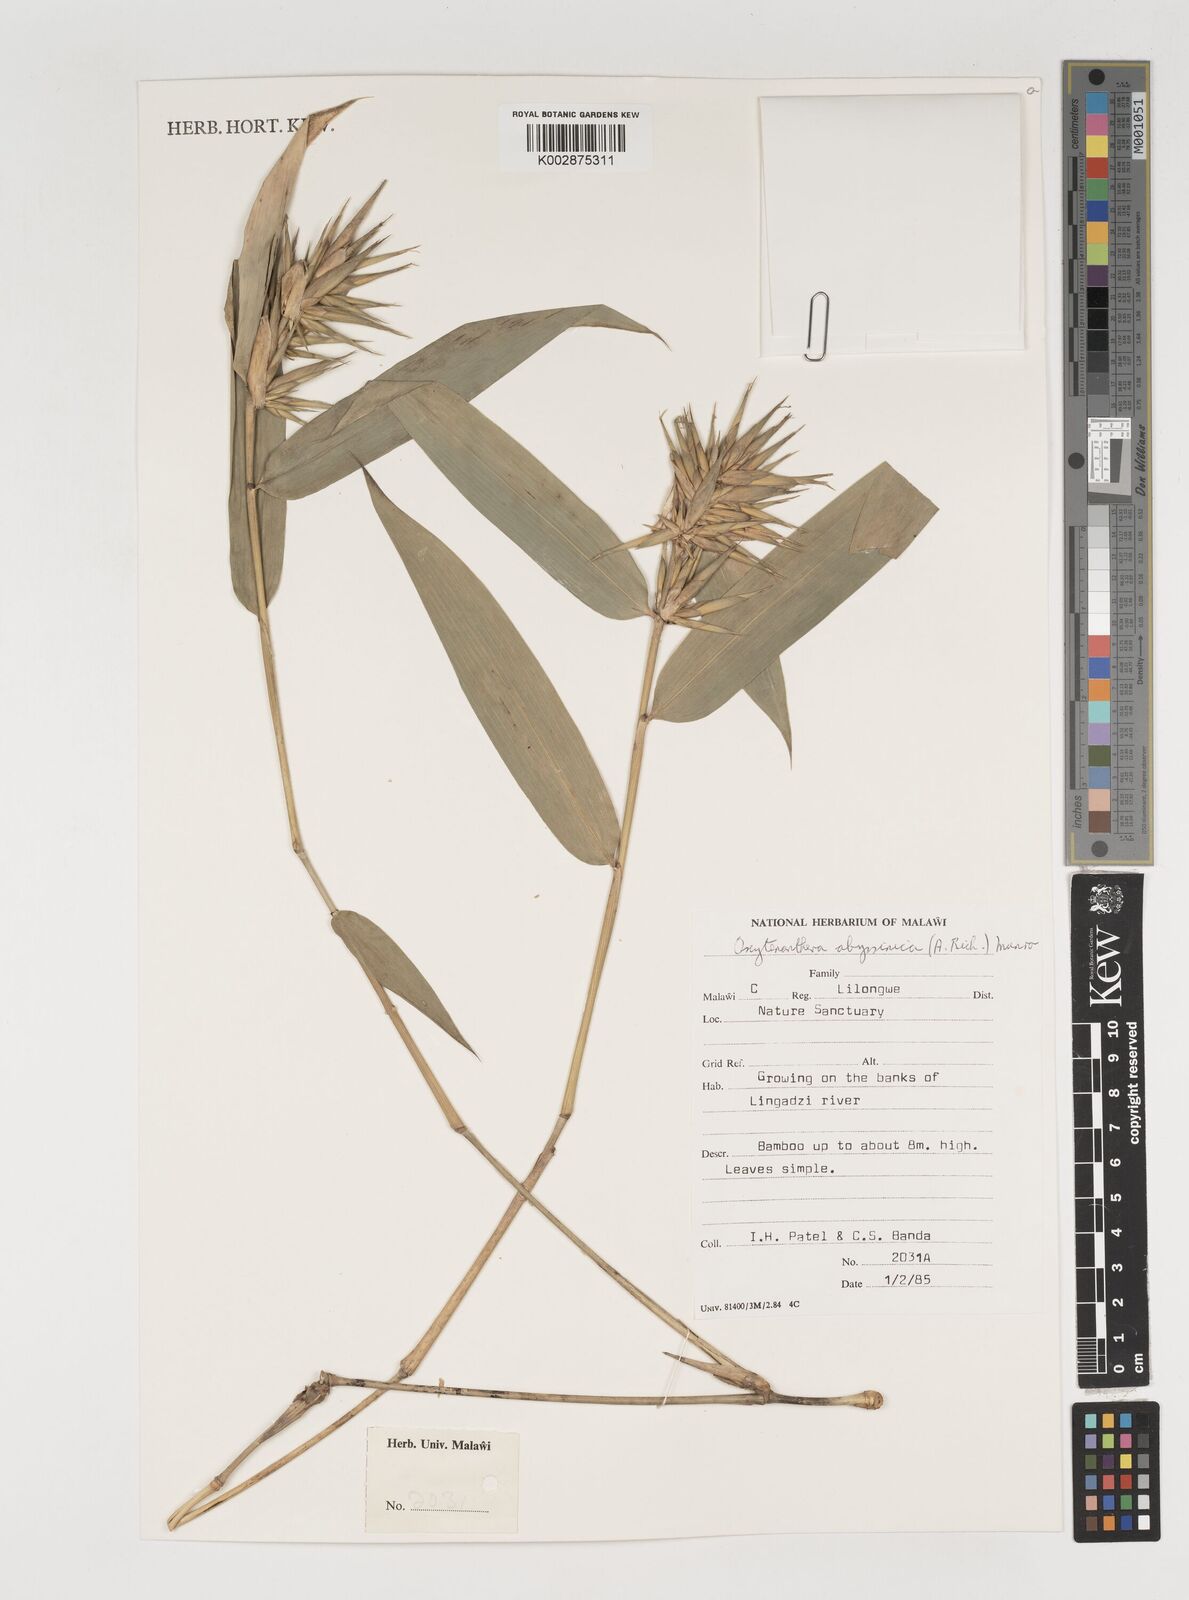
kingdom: Plantae
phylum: Tracheophyta
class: Liliopsida
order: Poales
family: Poaceae
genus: Oxytenanthera
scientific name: Oxytenanthera abyssinica
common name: Wine bamboo
